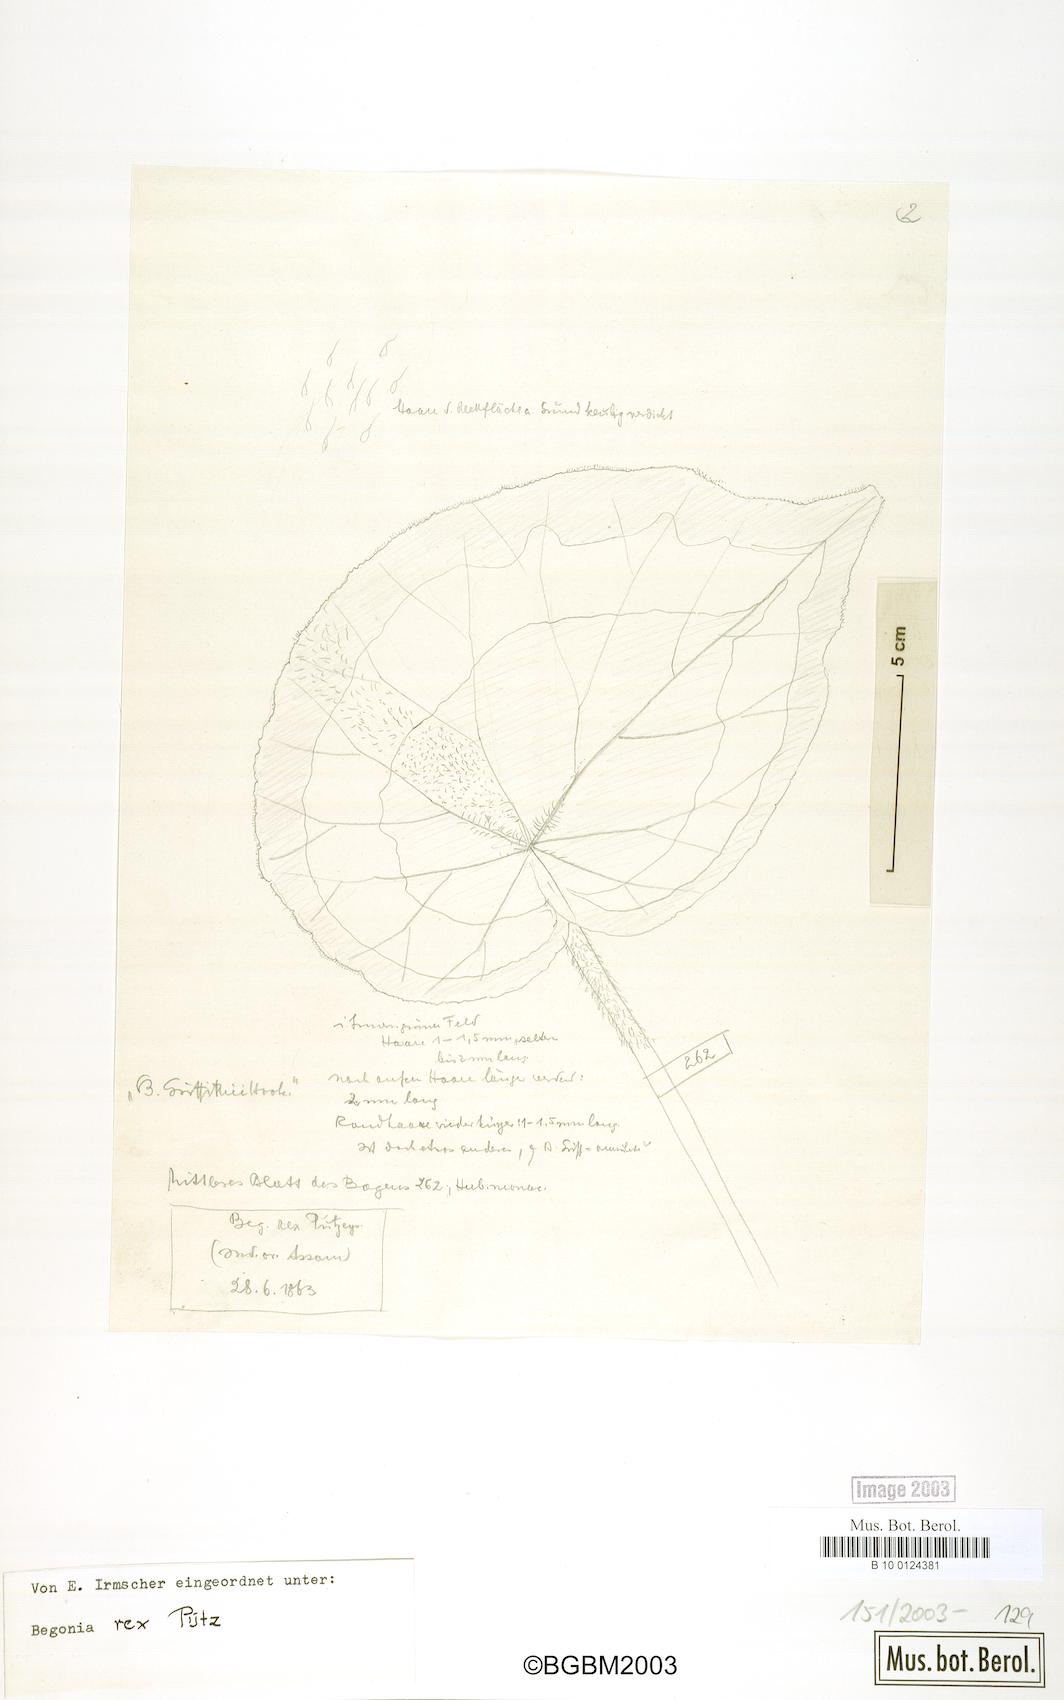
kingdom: Plantae
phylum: Tracheophyta
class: Magnoliopsida
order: Cucurbitales
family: Begoniaceae
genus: Begonia
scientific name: Begonia rex
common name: Painted-leaf begonia
